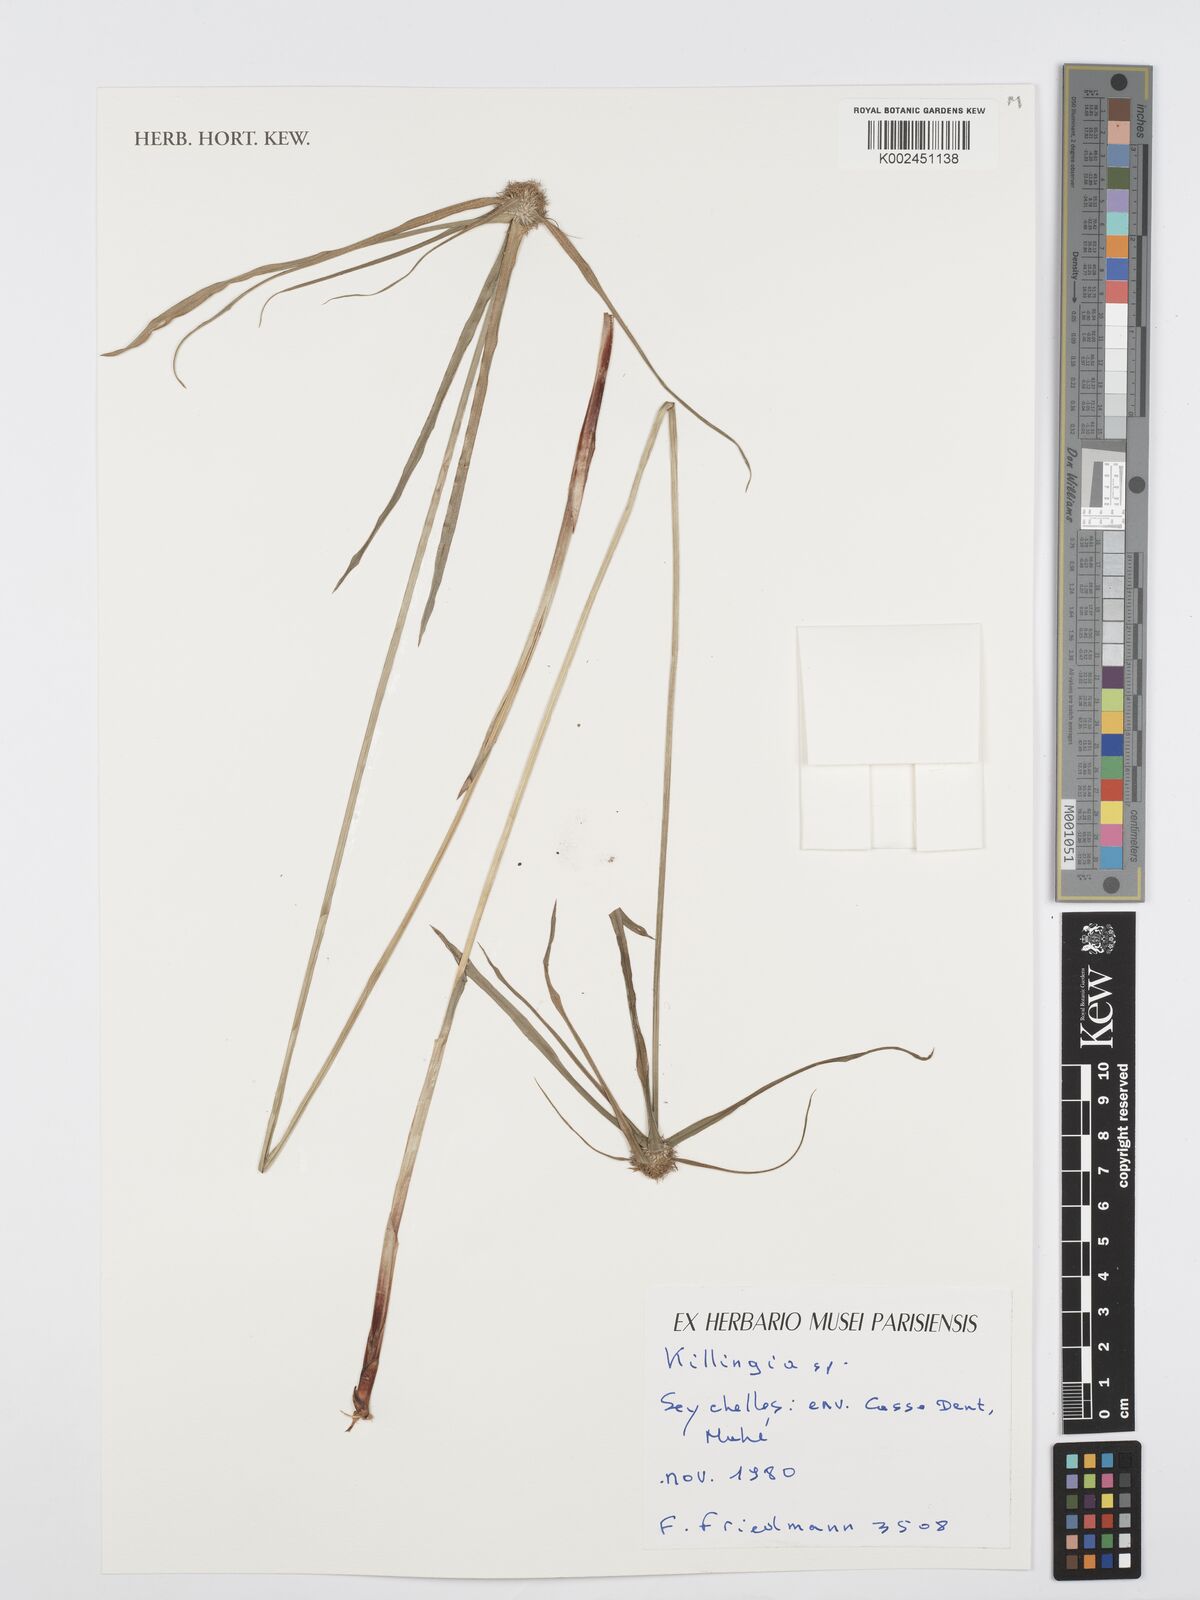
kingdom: Plantae
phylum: Tracheophyta
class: Liliopsida
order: Poales
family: Cyperaceae
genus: Cyperus
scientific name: Cyperus
